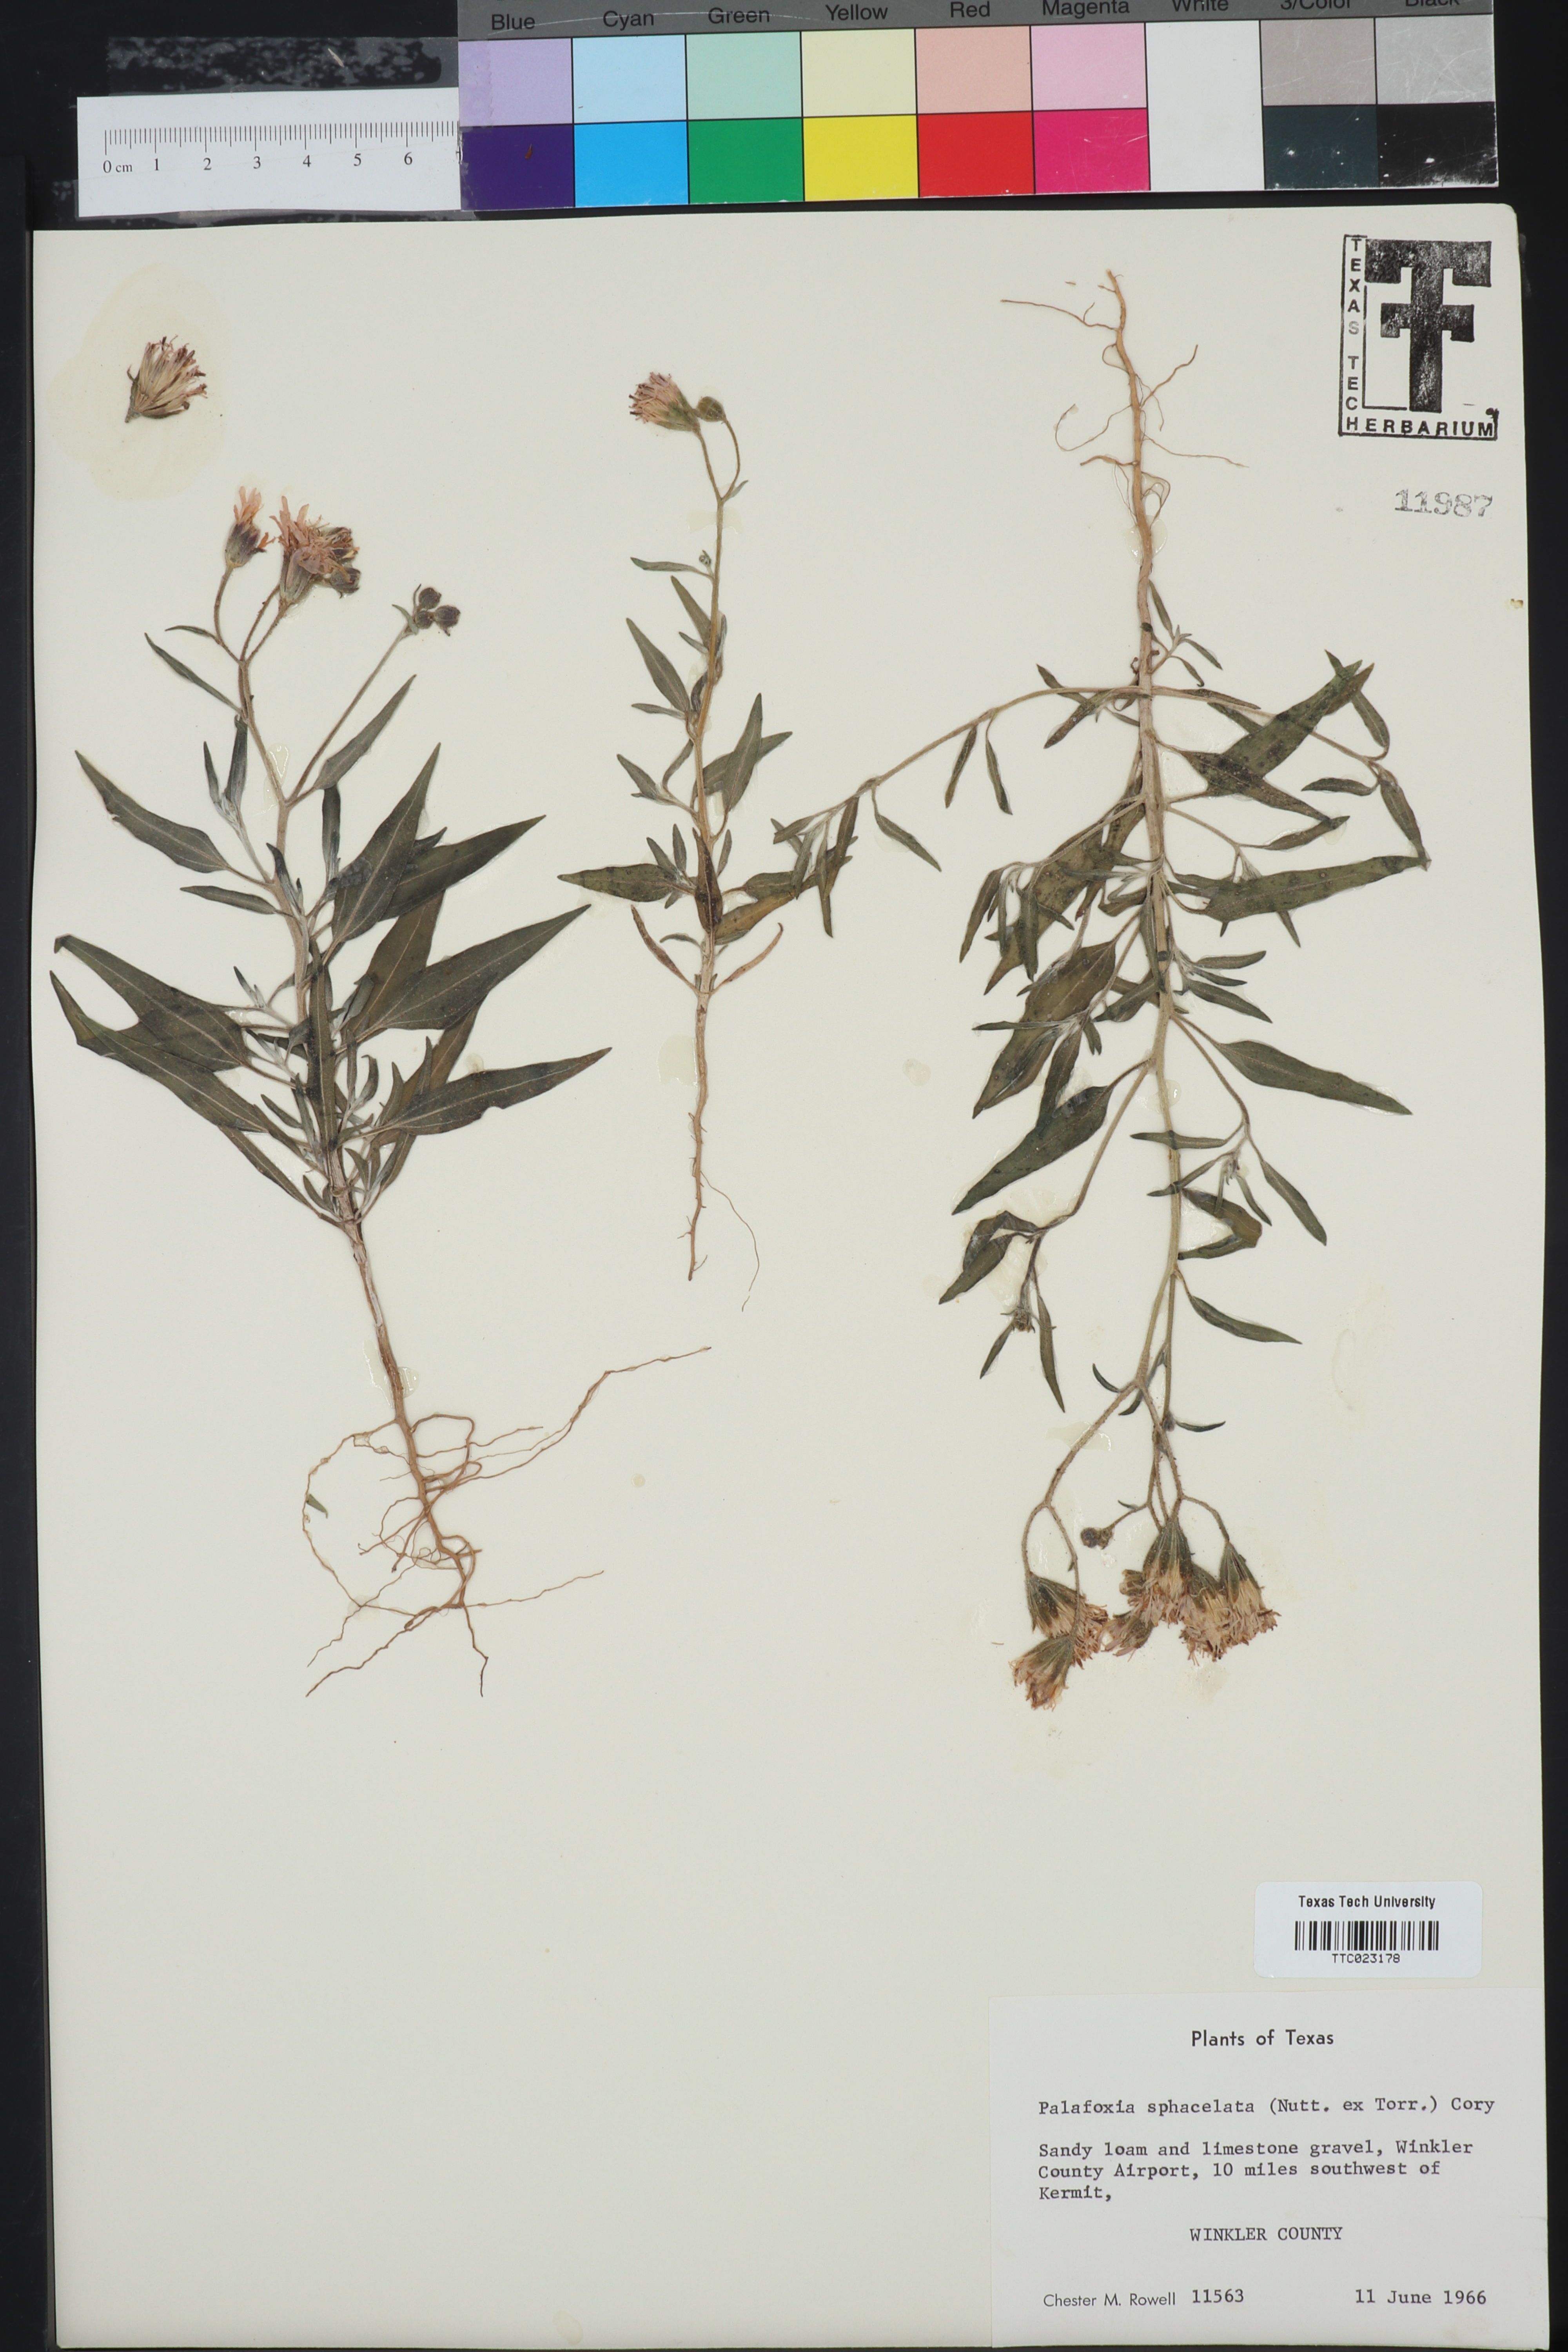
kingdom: Plantae
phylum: Tracheophyta
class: Magnoliopsida
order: Asterales
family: Asteraceae
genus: Palafoxia
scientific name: Palafoxia sphacelata
